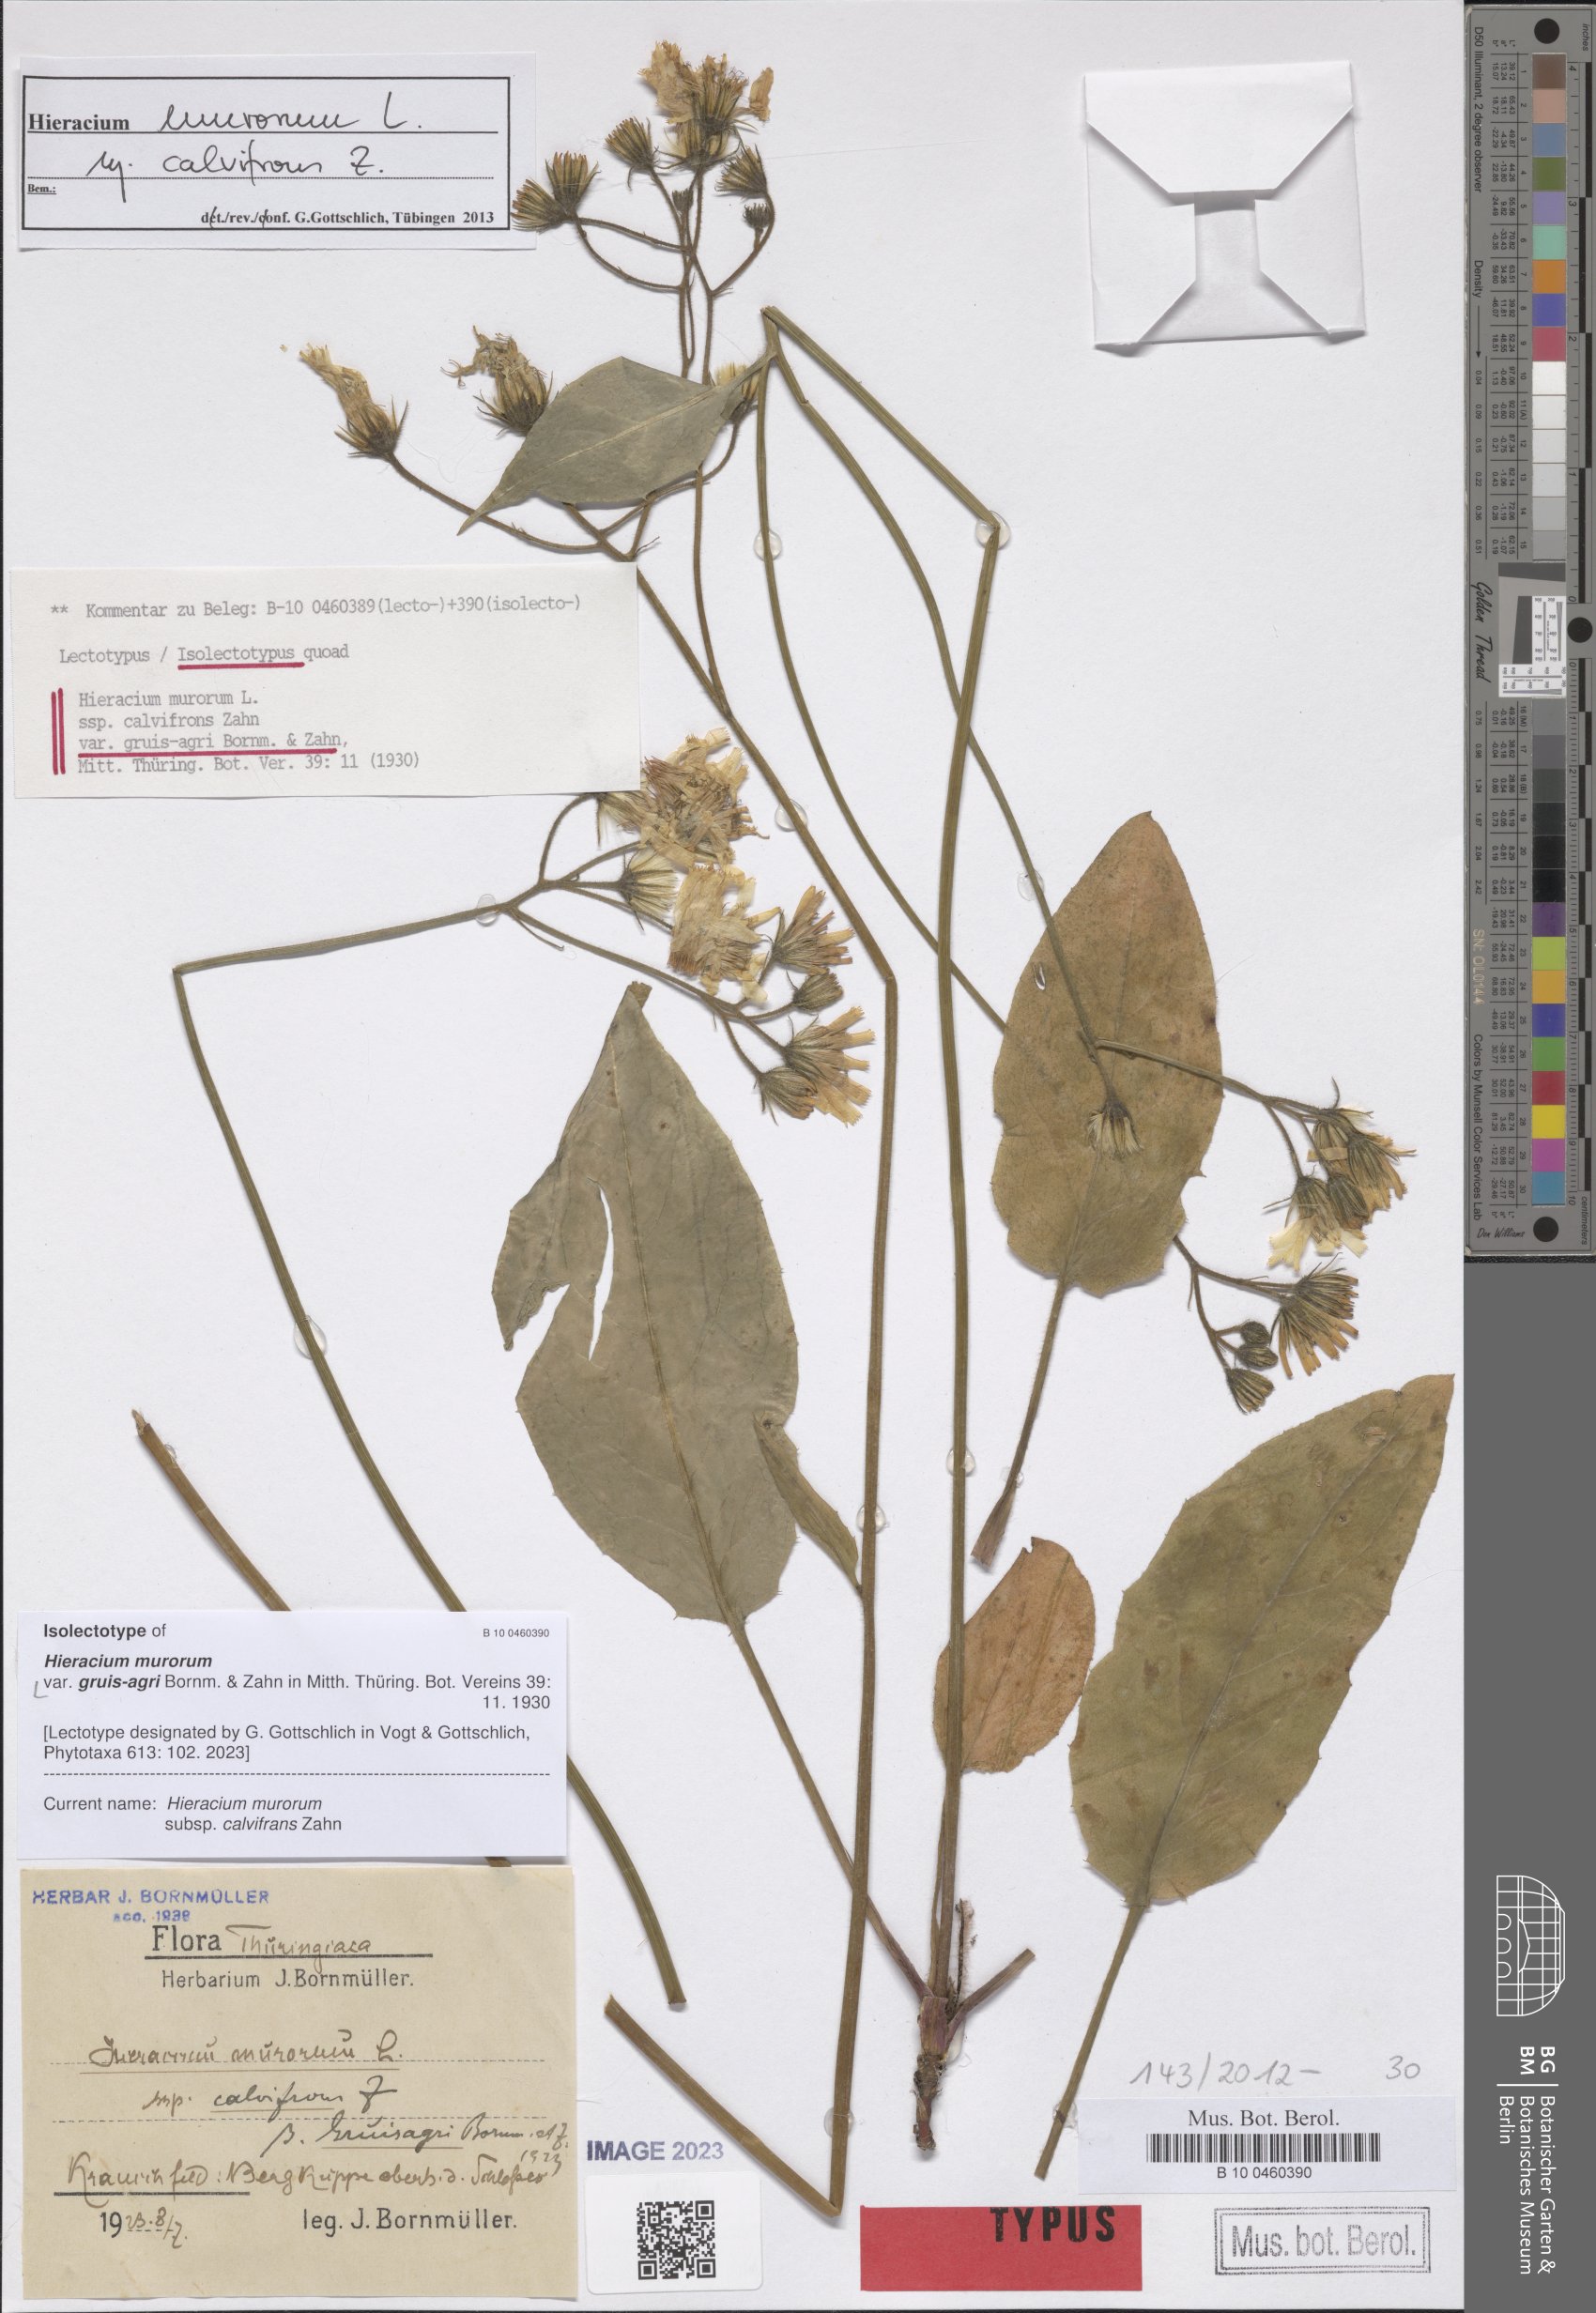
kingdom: Plantae
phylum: Tracheophyta
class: Magnoliopsida
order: Asterales
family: Asteraceae
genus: Hieracium
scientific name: Hieracium murorum
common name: Wall hawkweed
